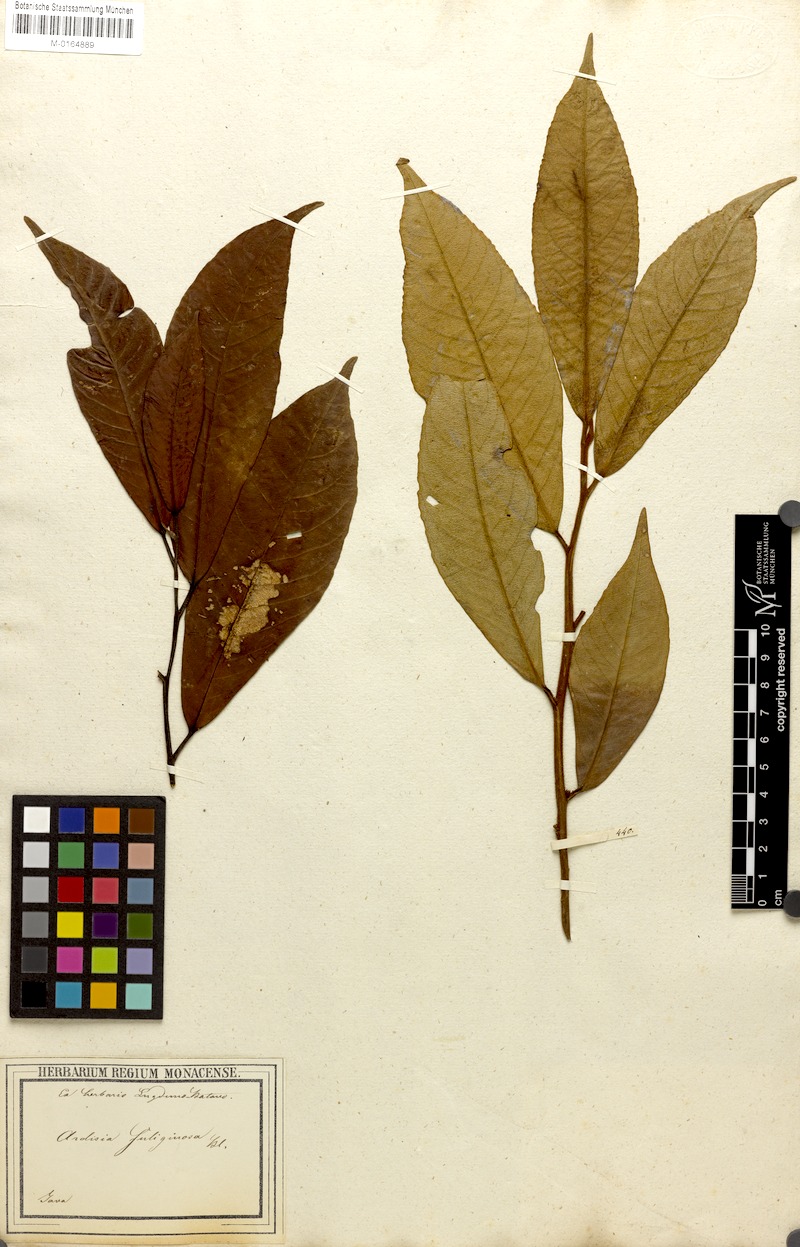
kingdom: Plantae
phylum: Tracheophyta
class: Magnoliopsida
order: Ericales
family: Primulaceae
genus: Ardisia
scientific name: Ardisia fuliginosa
